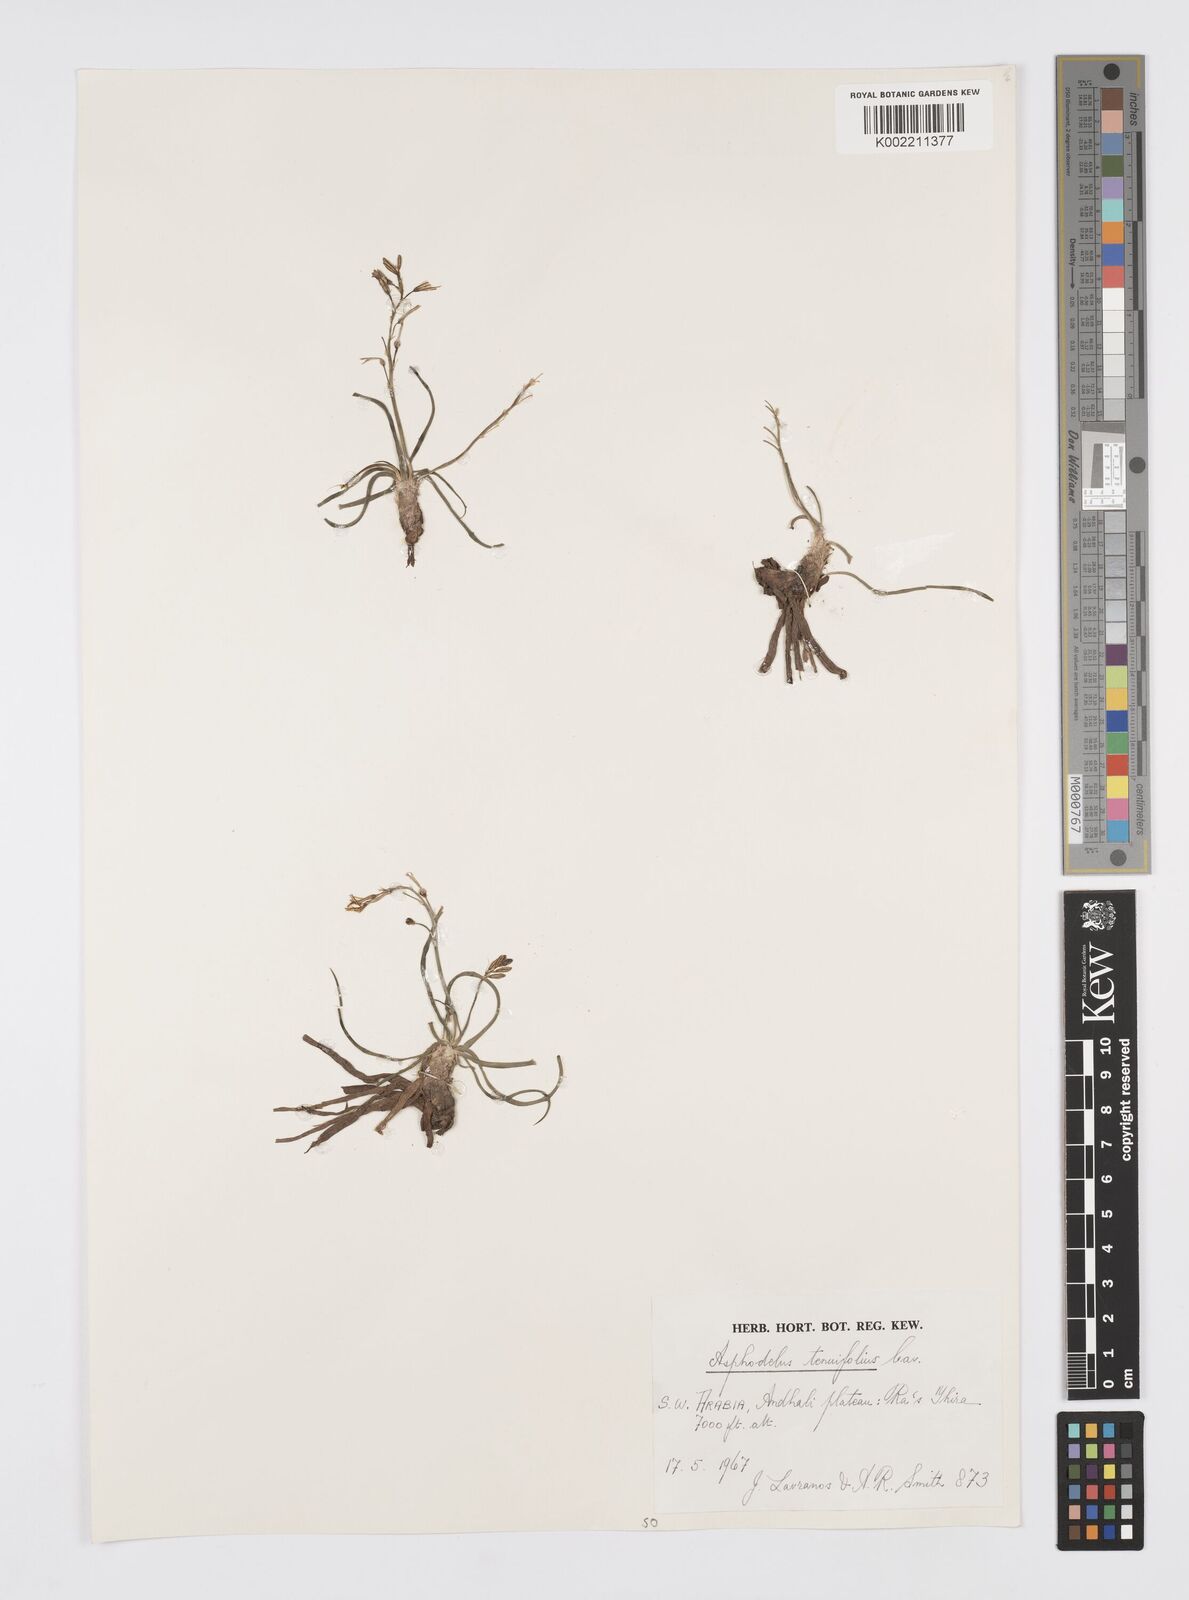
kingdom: Plantae
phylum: Tracheophyta
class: Liliopsida
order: Asparagales
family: Asphodelaceae
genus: Asphodelus
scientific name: Asphodelus tenuifolius
